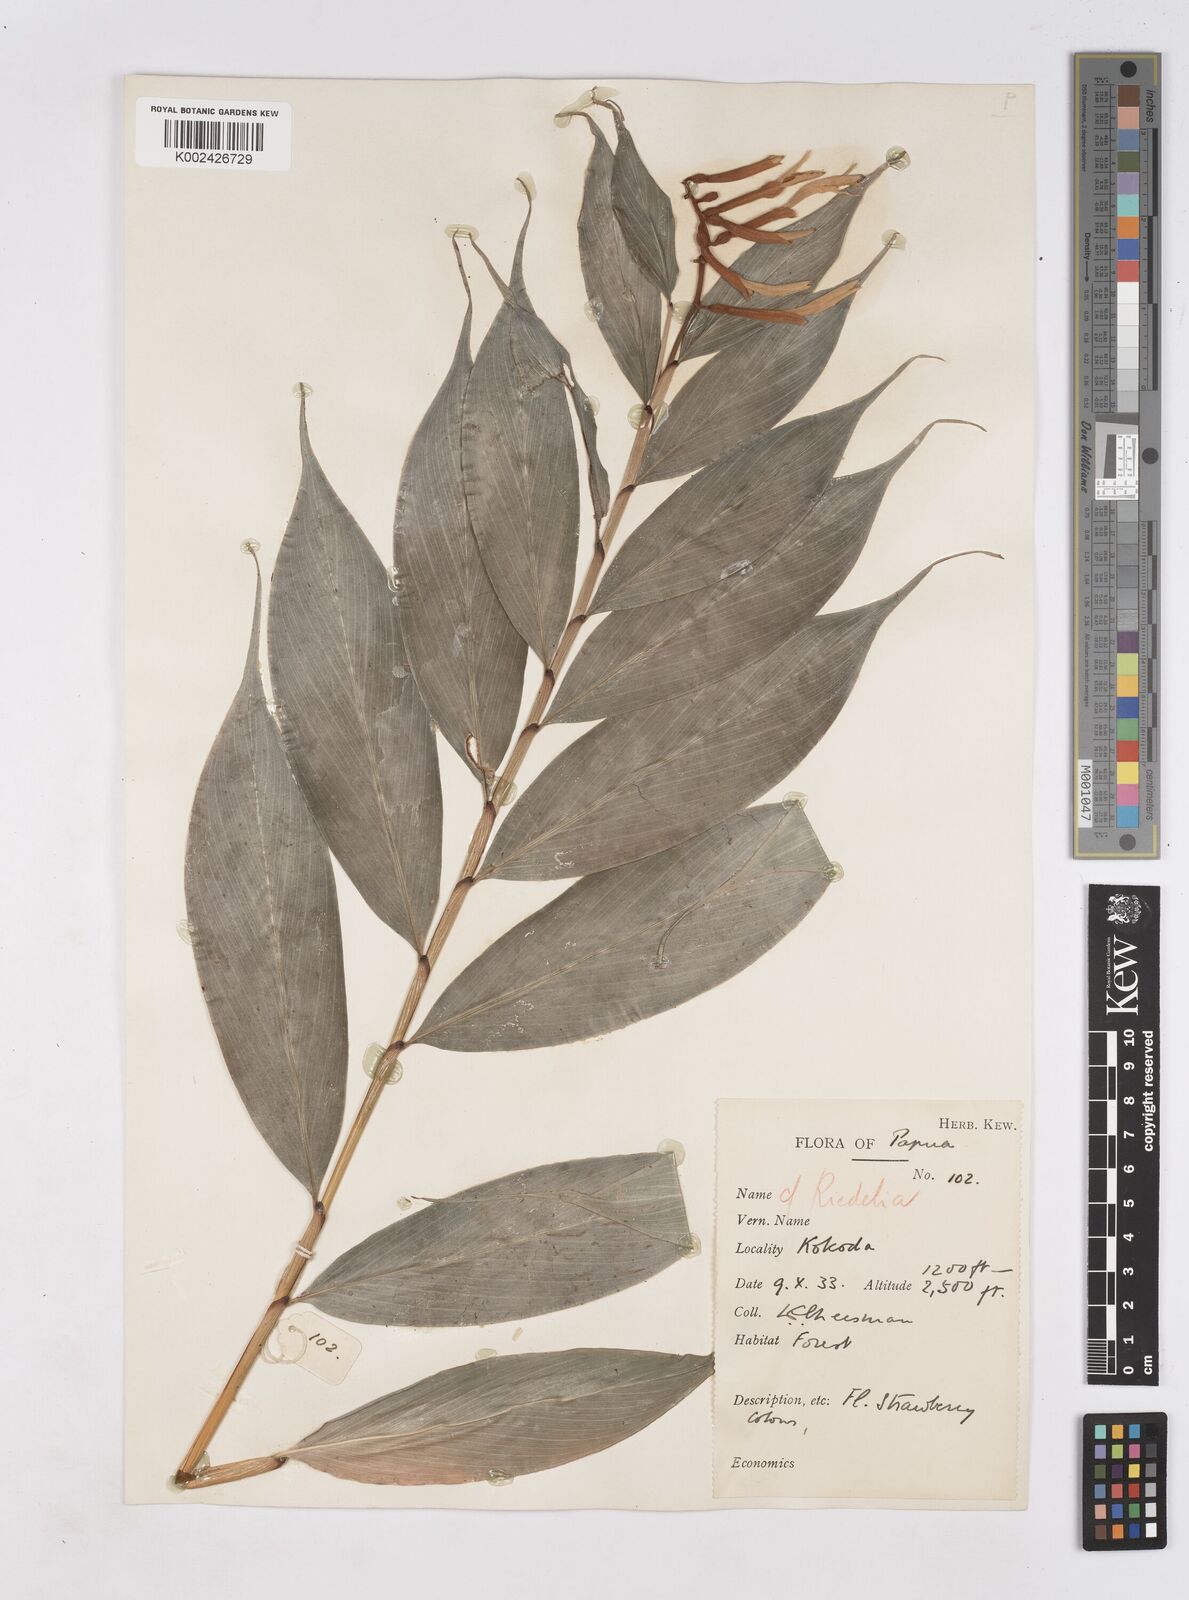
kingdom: Plantae
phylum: Tracheophyta
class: Liliopsida
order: Zingiberales
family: Zingiberaceae
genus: Riedelia
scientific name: Riedelia
